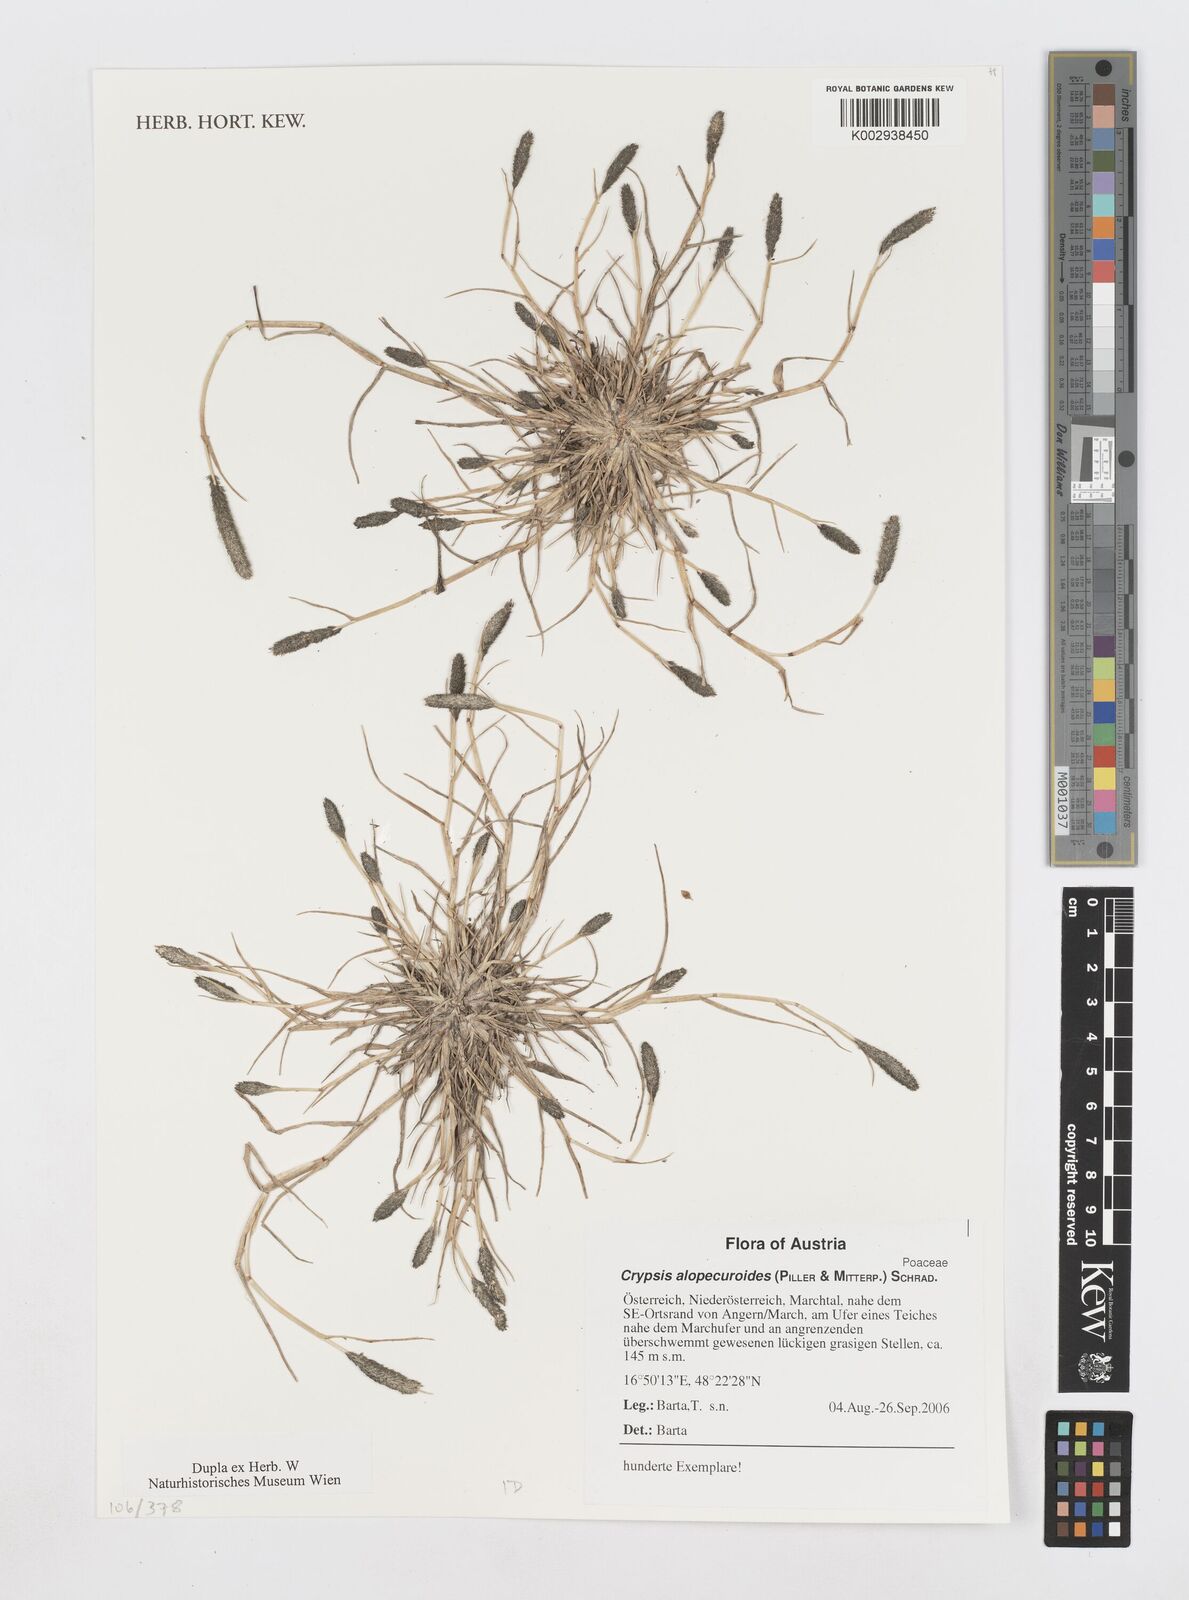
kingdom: Plantae
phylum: Tracheophyta
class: Liliopsida
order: Poales
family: Poaceae
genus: Sporobolus
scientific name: Sporobolus alopecuroides
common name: Foxtail pricklegrass
